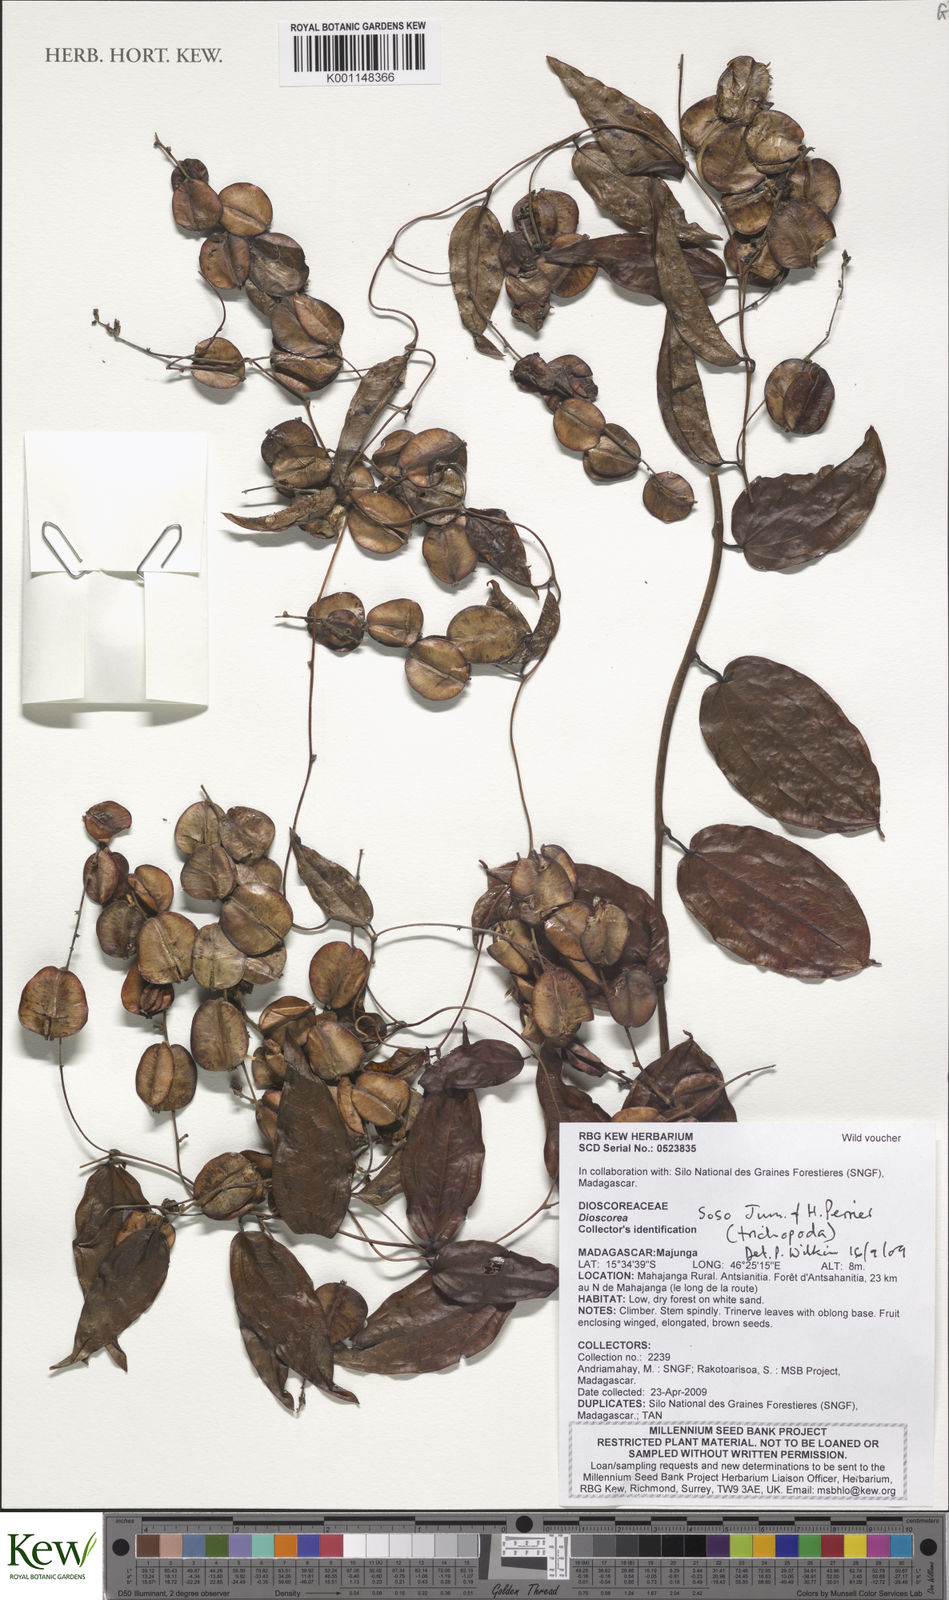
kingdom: Plantae
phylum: Tracheophyta
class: Liliopsida
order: Dioscoreales
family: Dioscoreaceae
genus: Dioscorea
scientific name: Dioscorea soso
